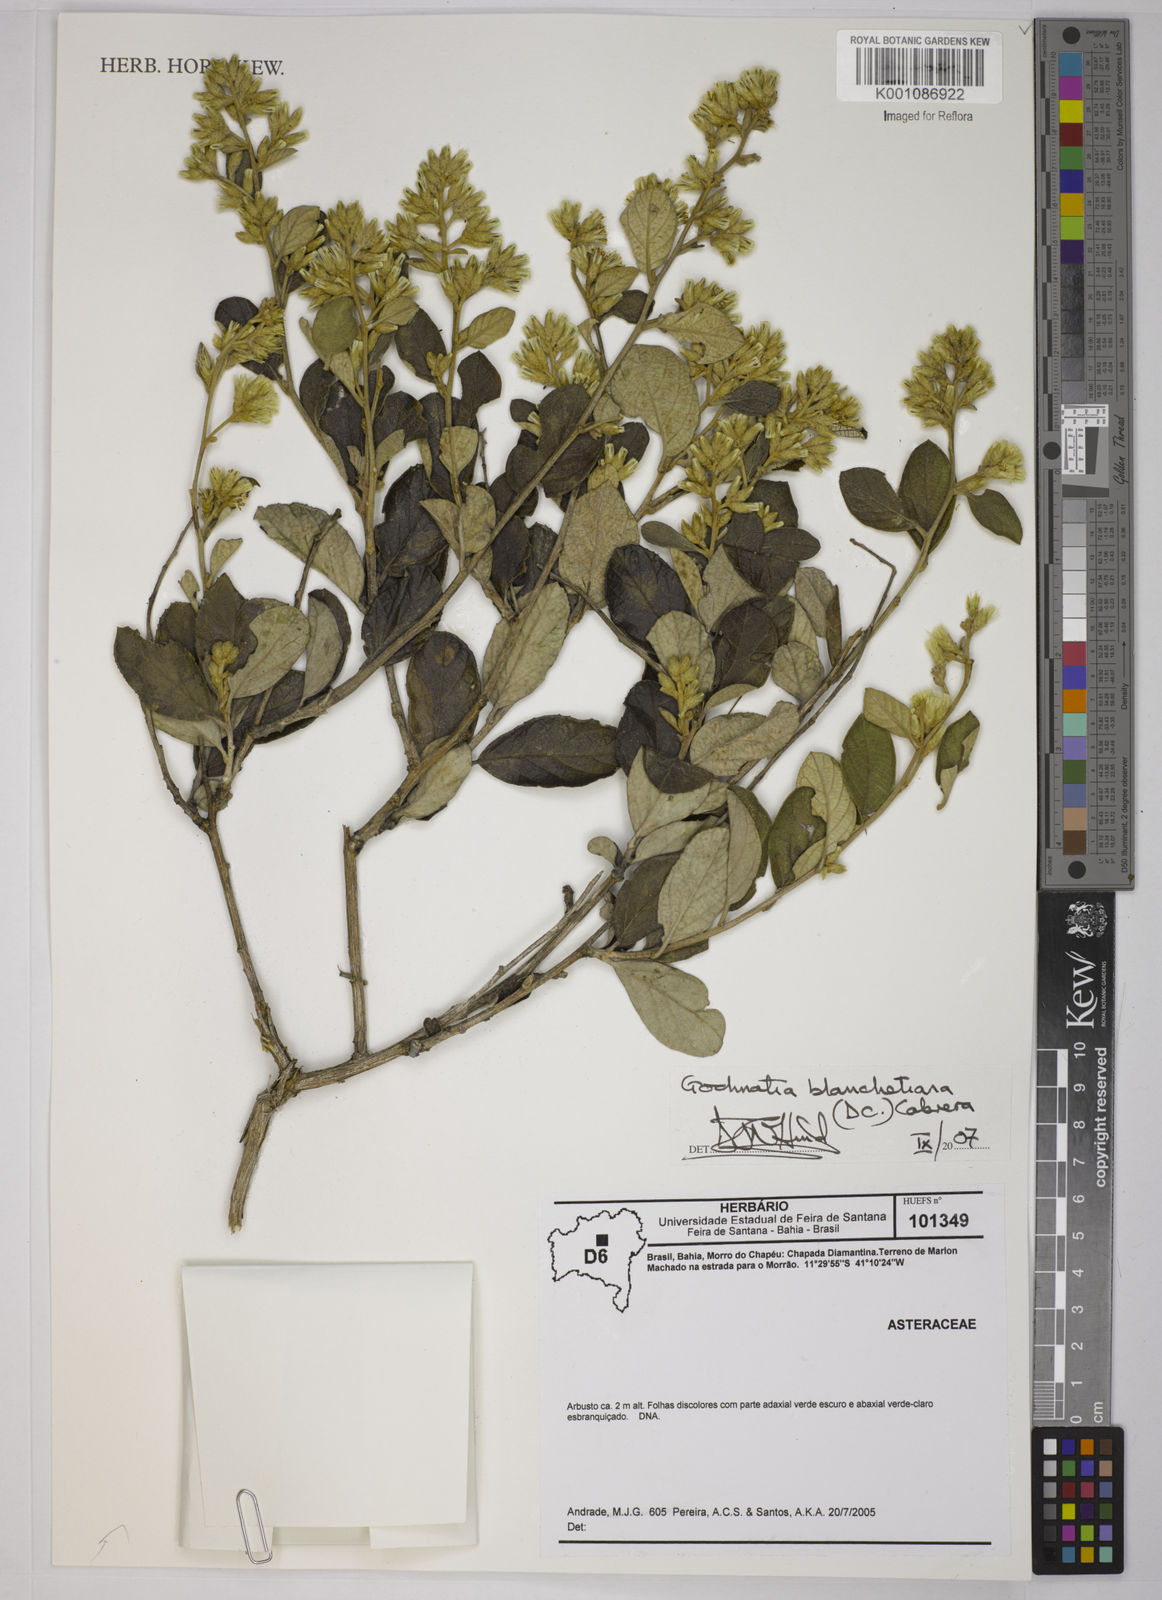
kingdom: Plantae
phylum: Tracheophyta
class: Magnoliopsida
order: Asterales
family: Asteraceae
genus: Moquiniastrum
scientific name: Moquiniastrum blanchetianum
